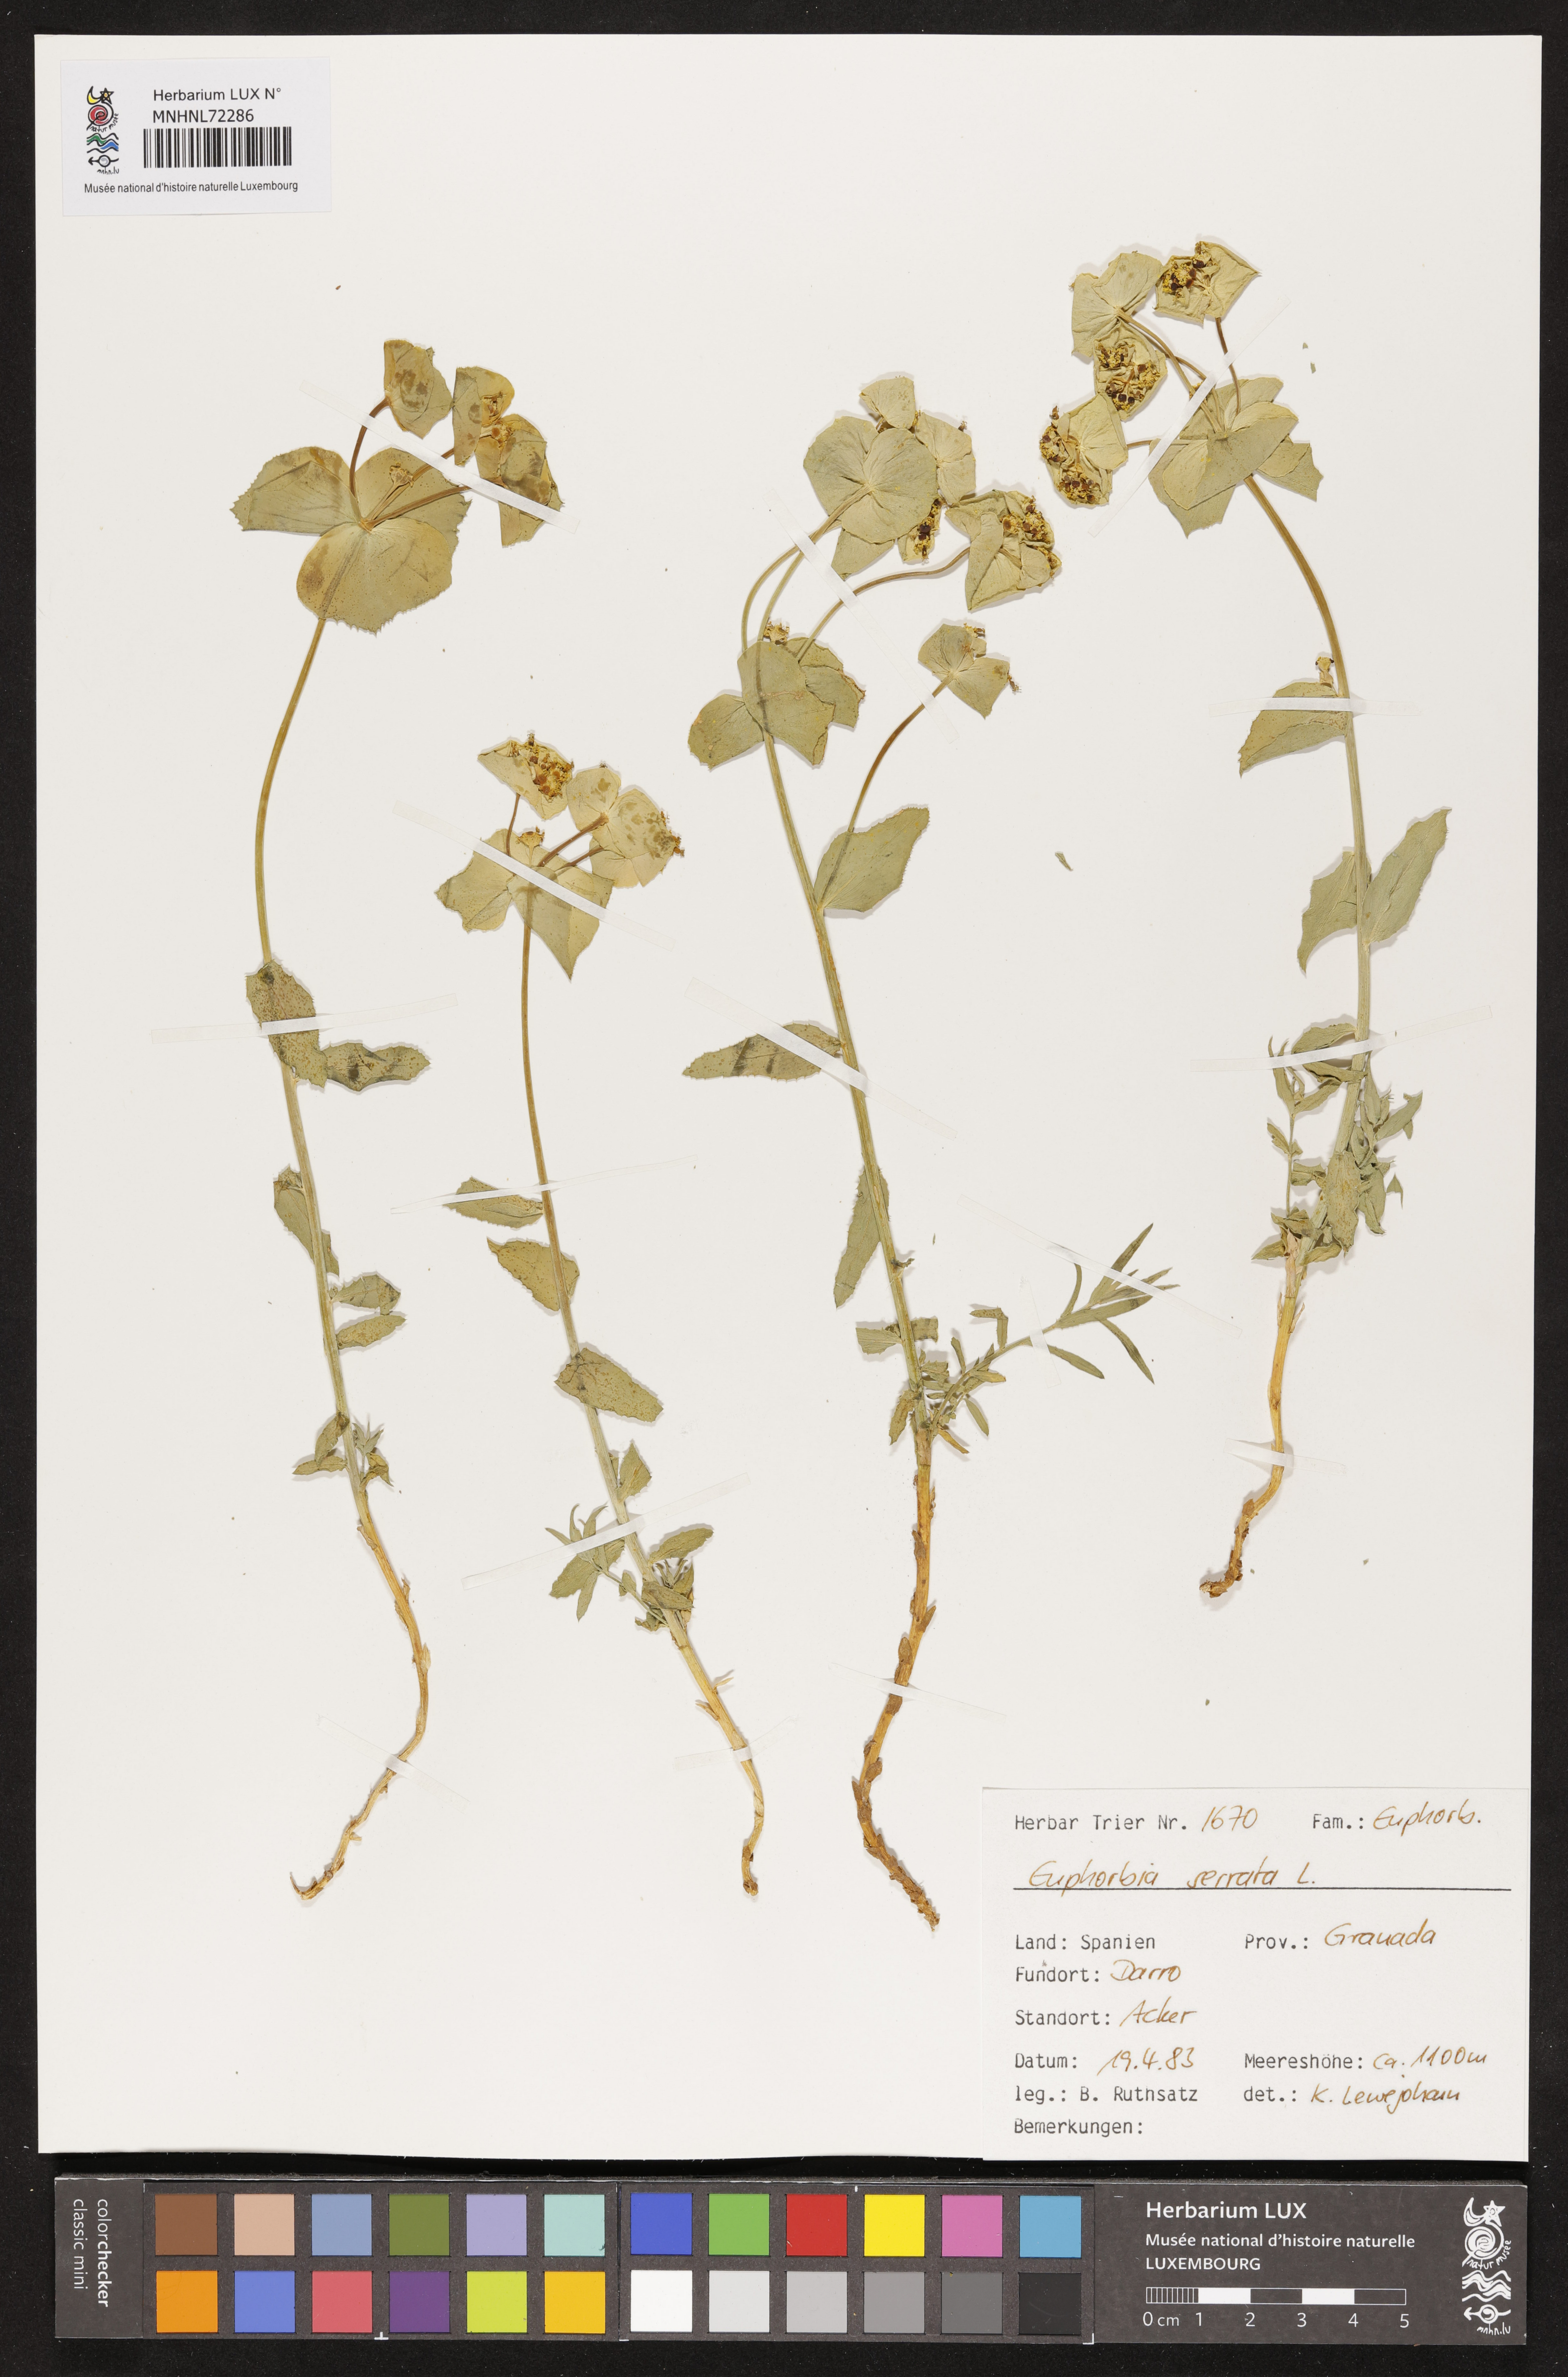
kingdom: Plantae
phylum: Tracheophyta
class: Magnoliopsida
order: Malpighiales
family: Euphorbiaceae
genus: Euphorbia
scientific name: Euphorbia serrata
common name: Serrate spurge
